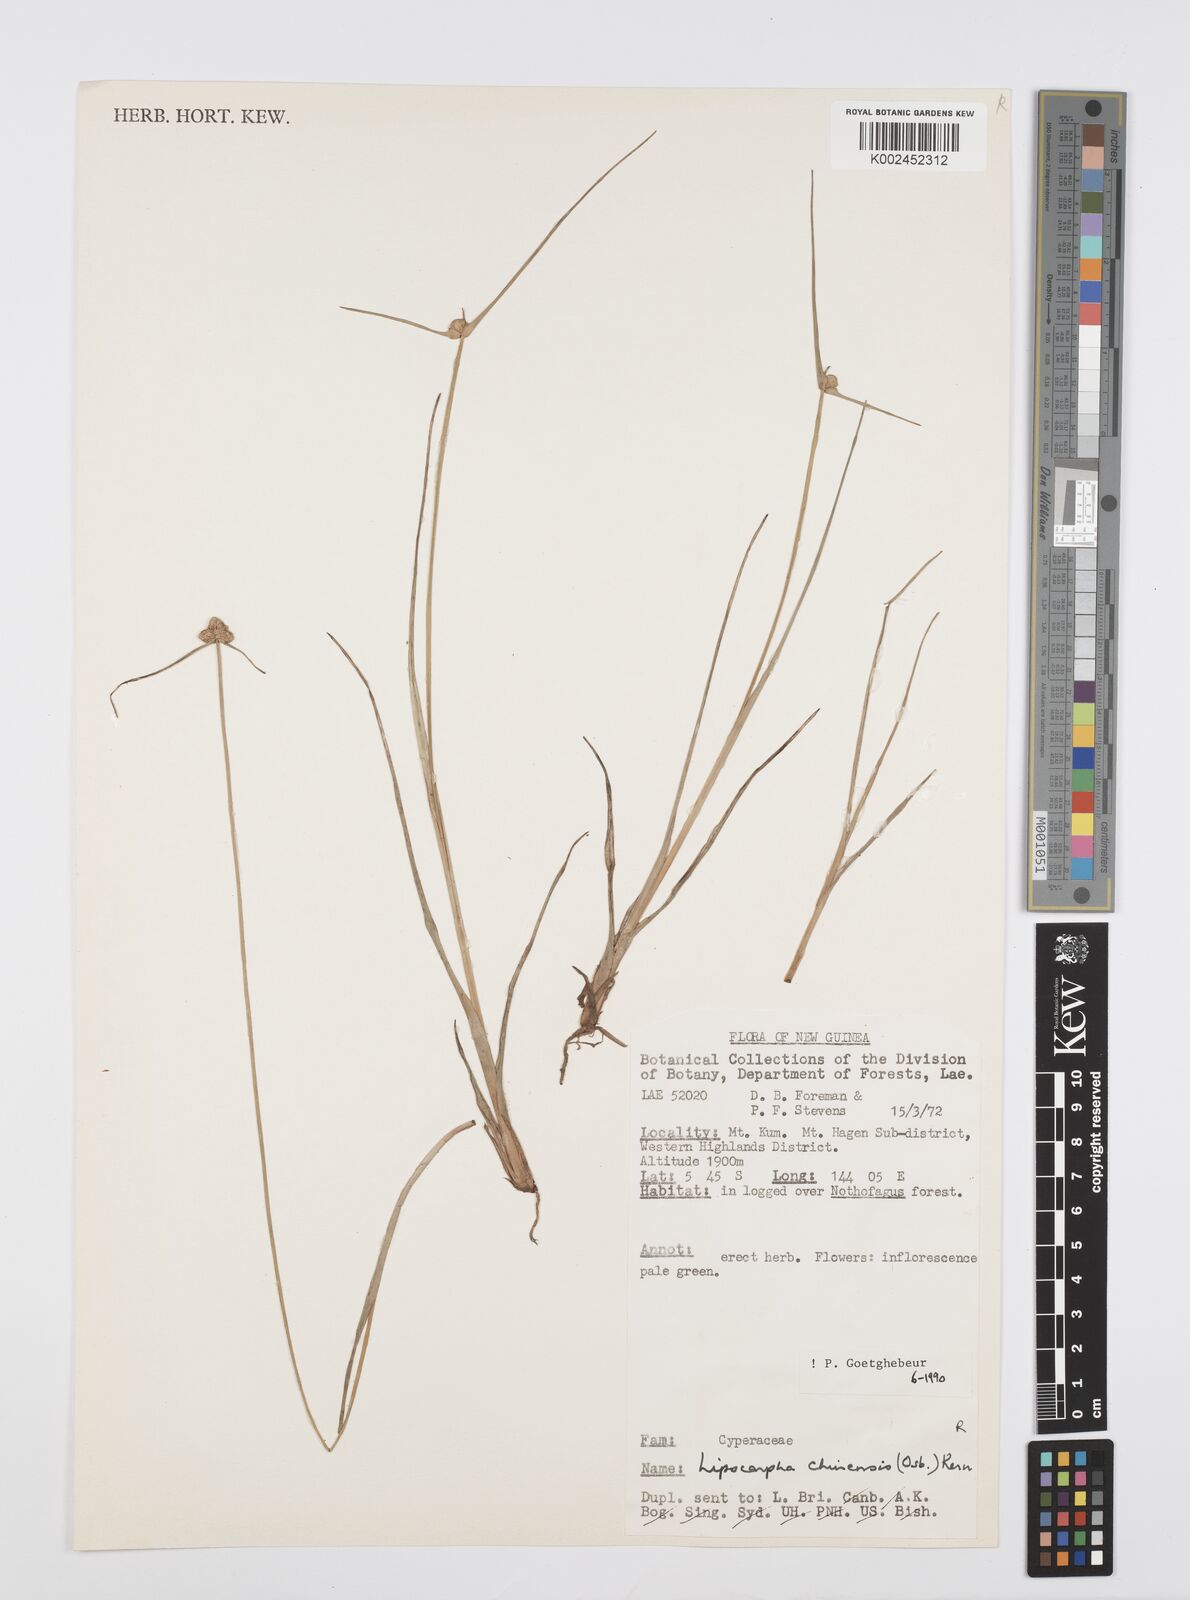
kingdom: Plantae
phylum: Tracheophyta
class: Liliopsida
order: Poales
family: Cyperaceae
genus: Cyperus
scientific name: Cyperus
